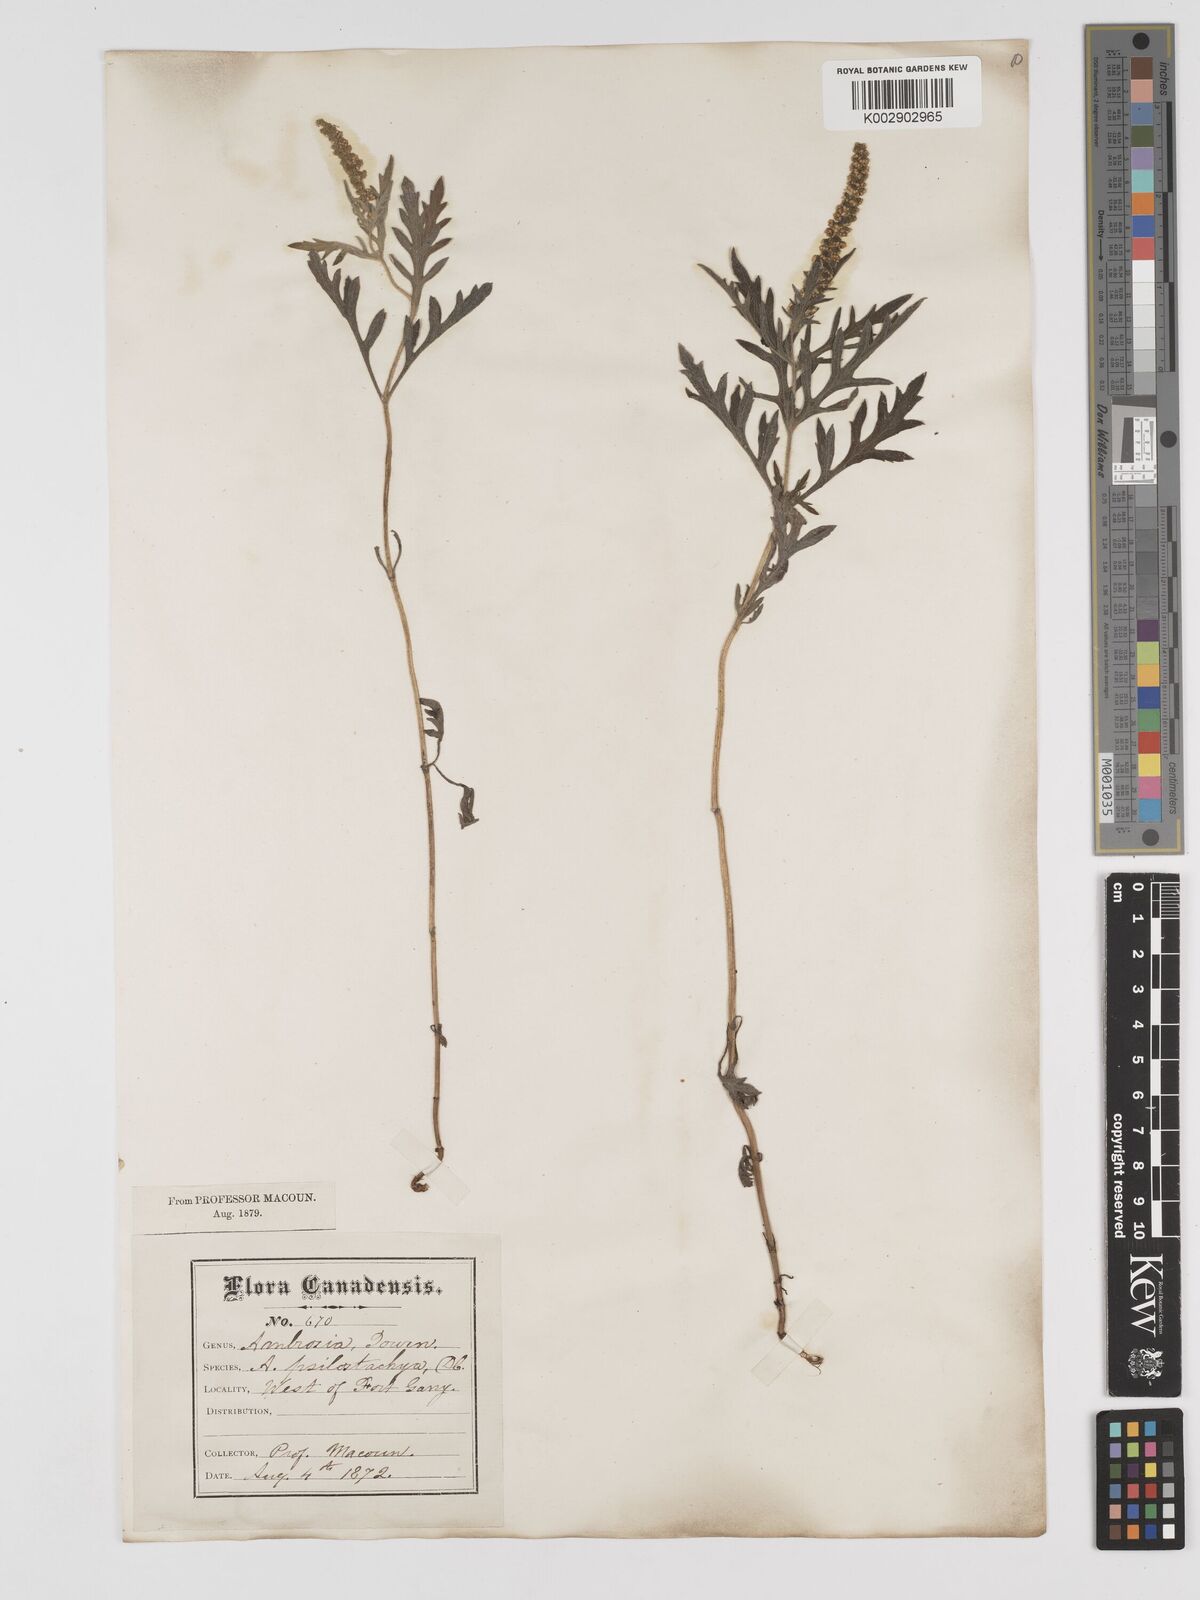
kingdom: Plantae
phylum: Tracheophyta
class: Magnoliopsida
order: Asterales
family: Asteraceae
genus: Ambrosia
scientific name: Ambrosia psilostachya
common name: Perennial ragweed
